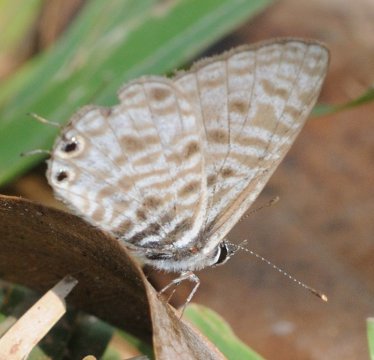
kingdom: Animalia
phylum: Arthropoda
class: Insecta
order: Lepidoptera
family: Lycaenidae
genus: Leptotes
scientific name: Leptotes
